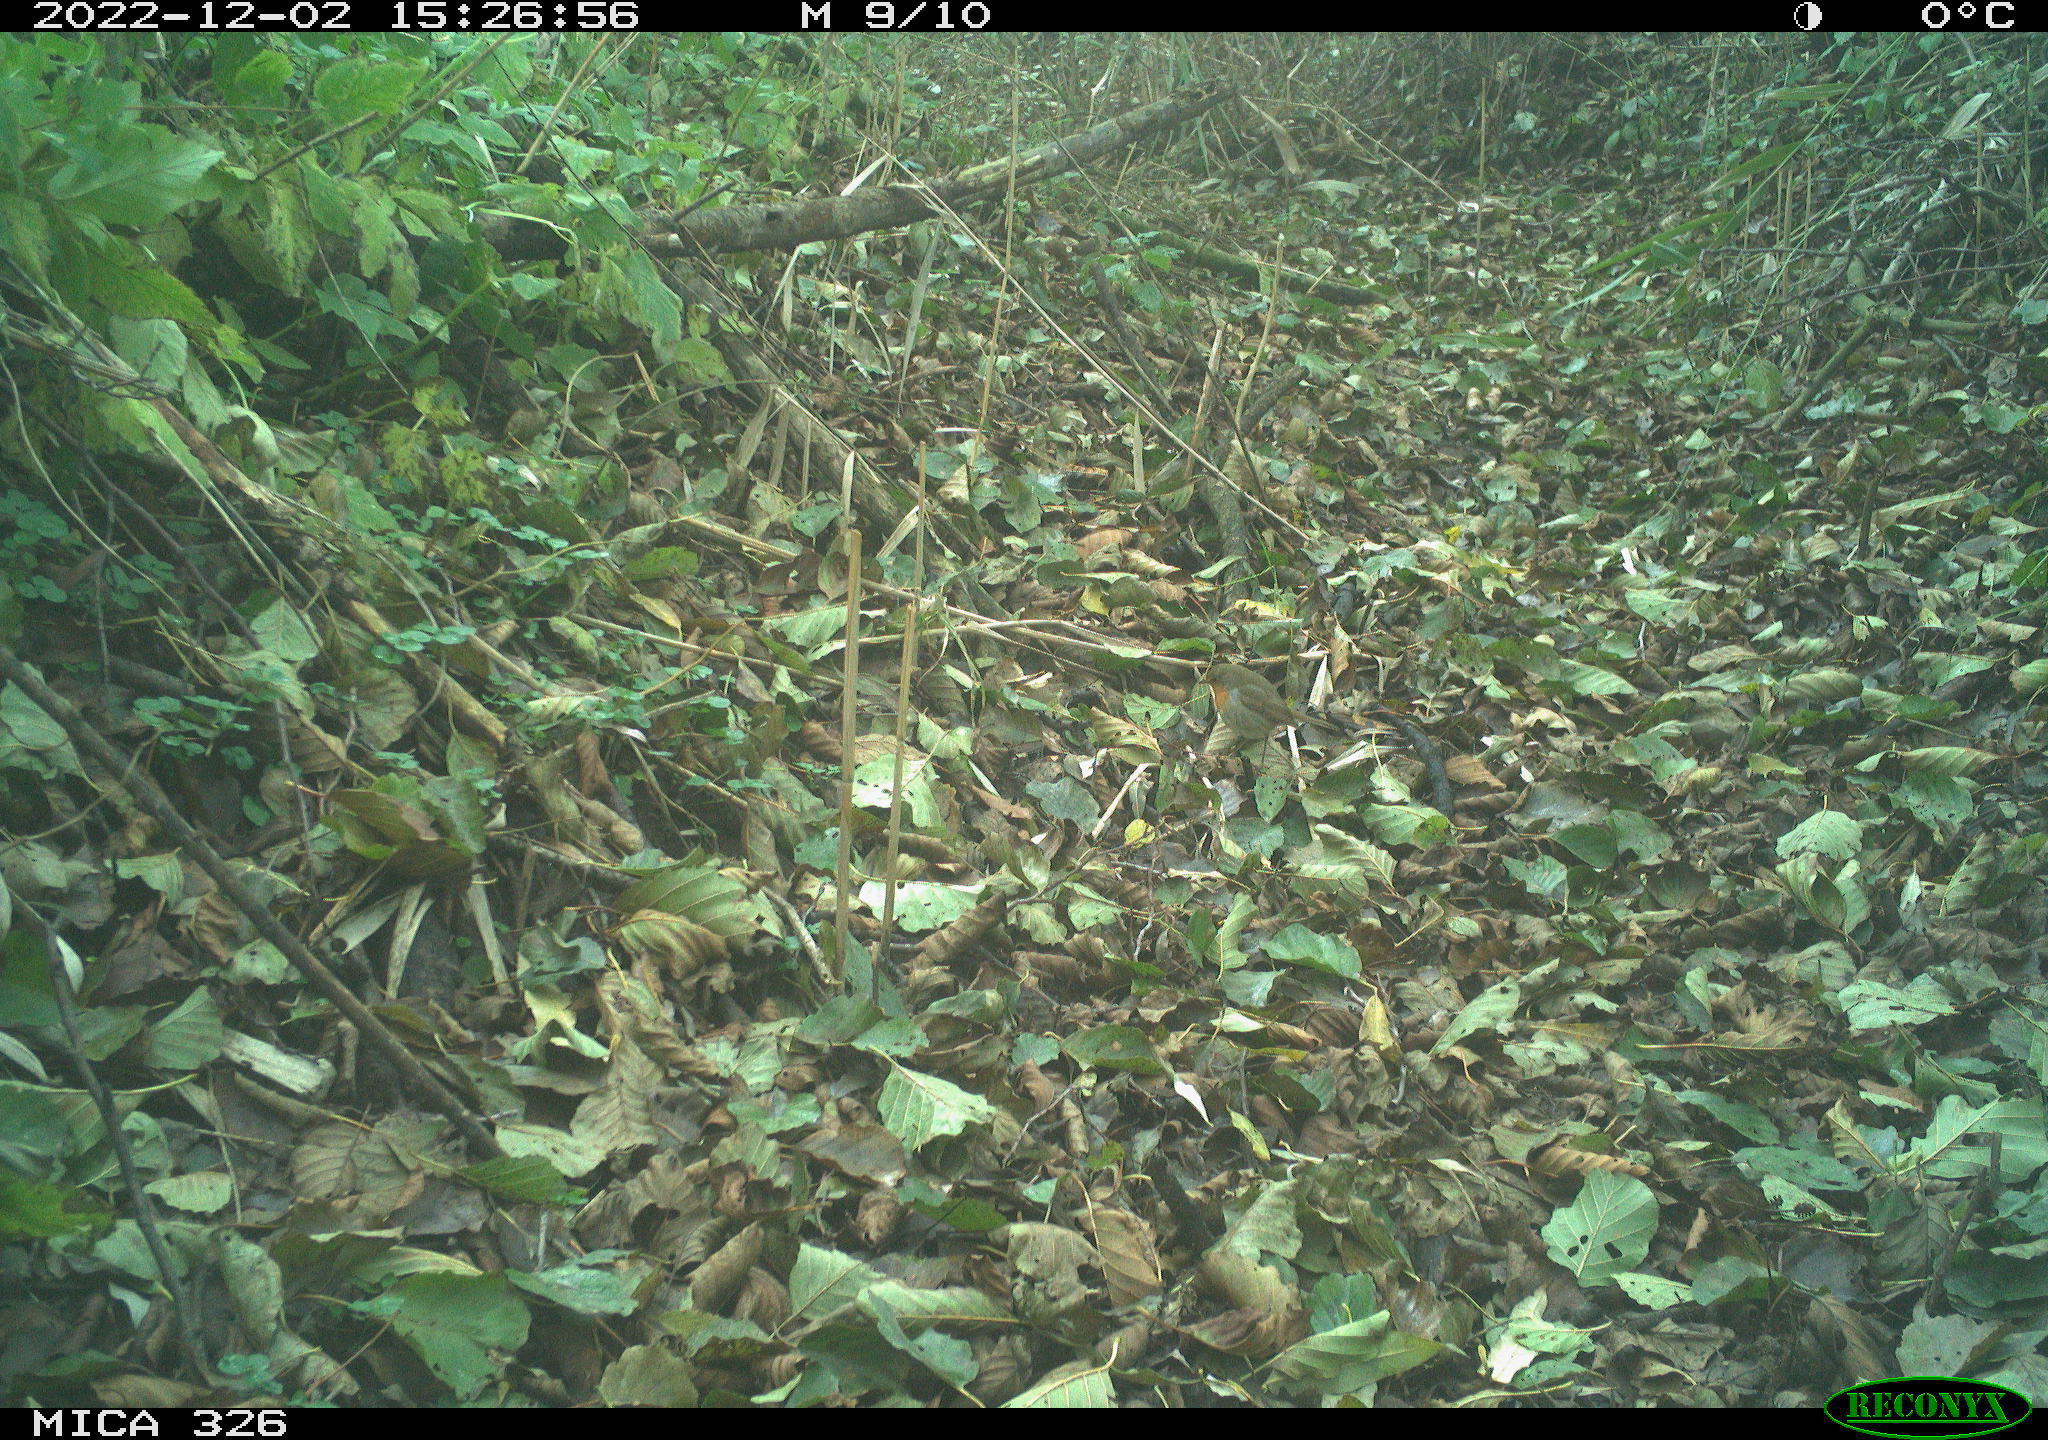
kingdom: Animalia
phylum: Chordata
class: Aves
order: Passeriformes
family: Muscicapidae
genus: Erithacus
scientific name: Erithacus rubecula
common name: European robin
